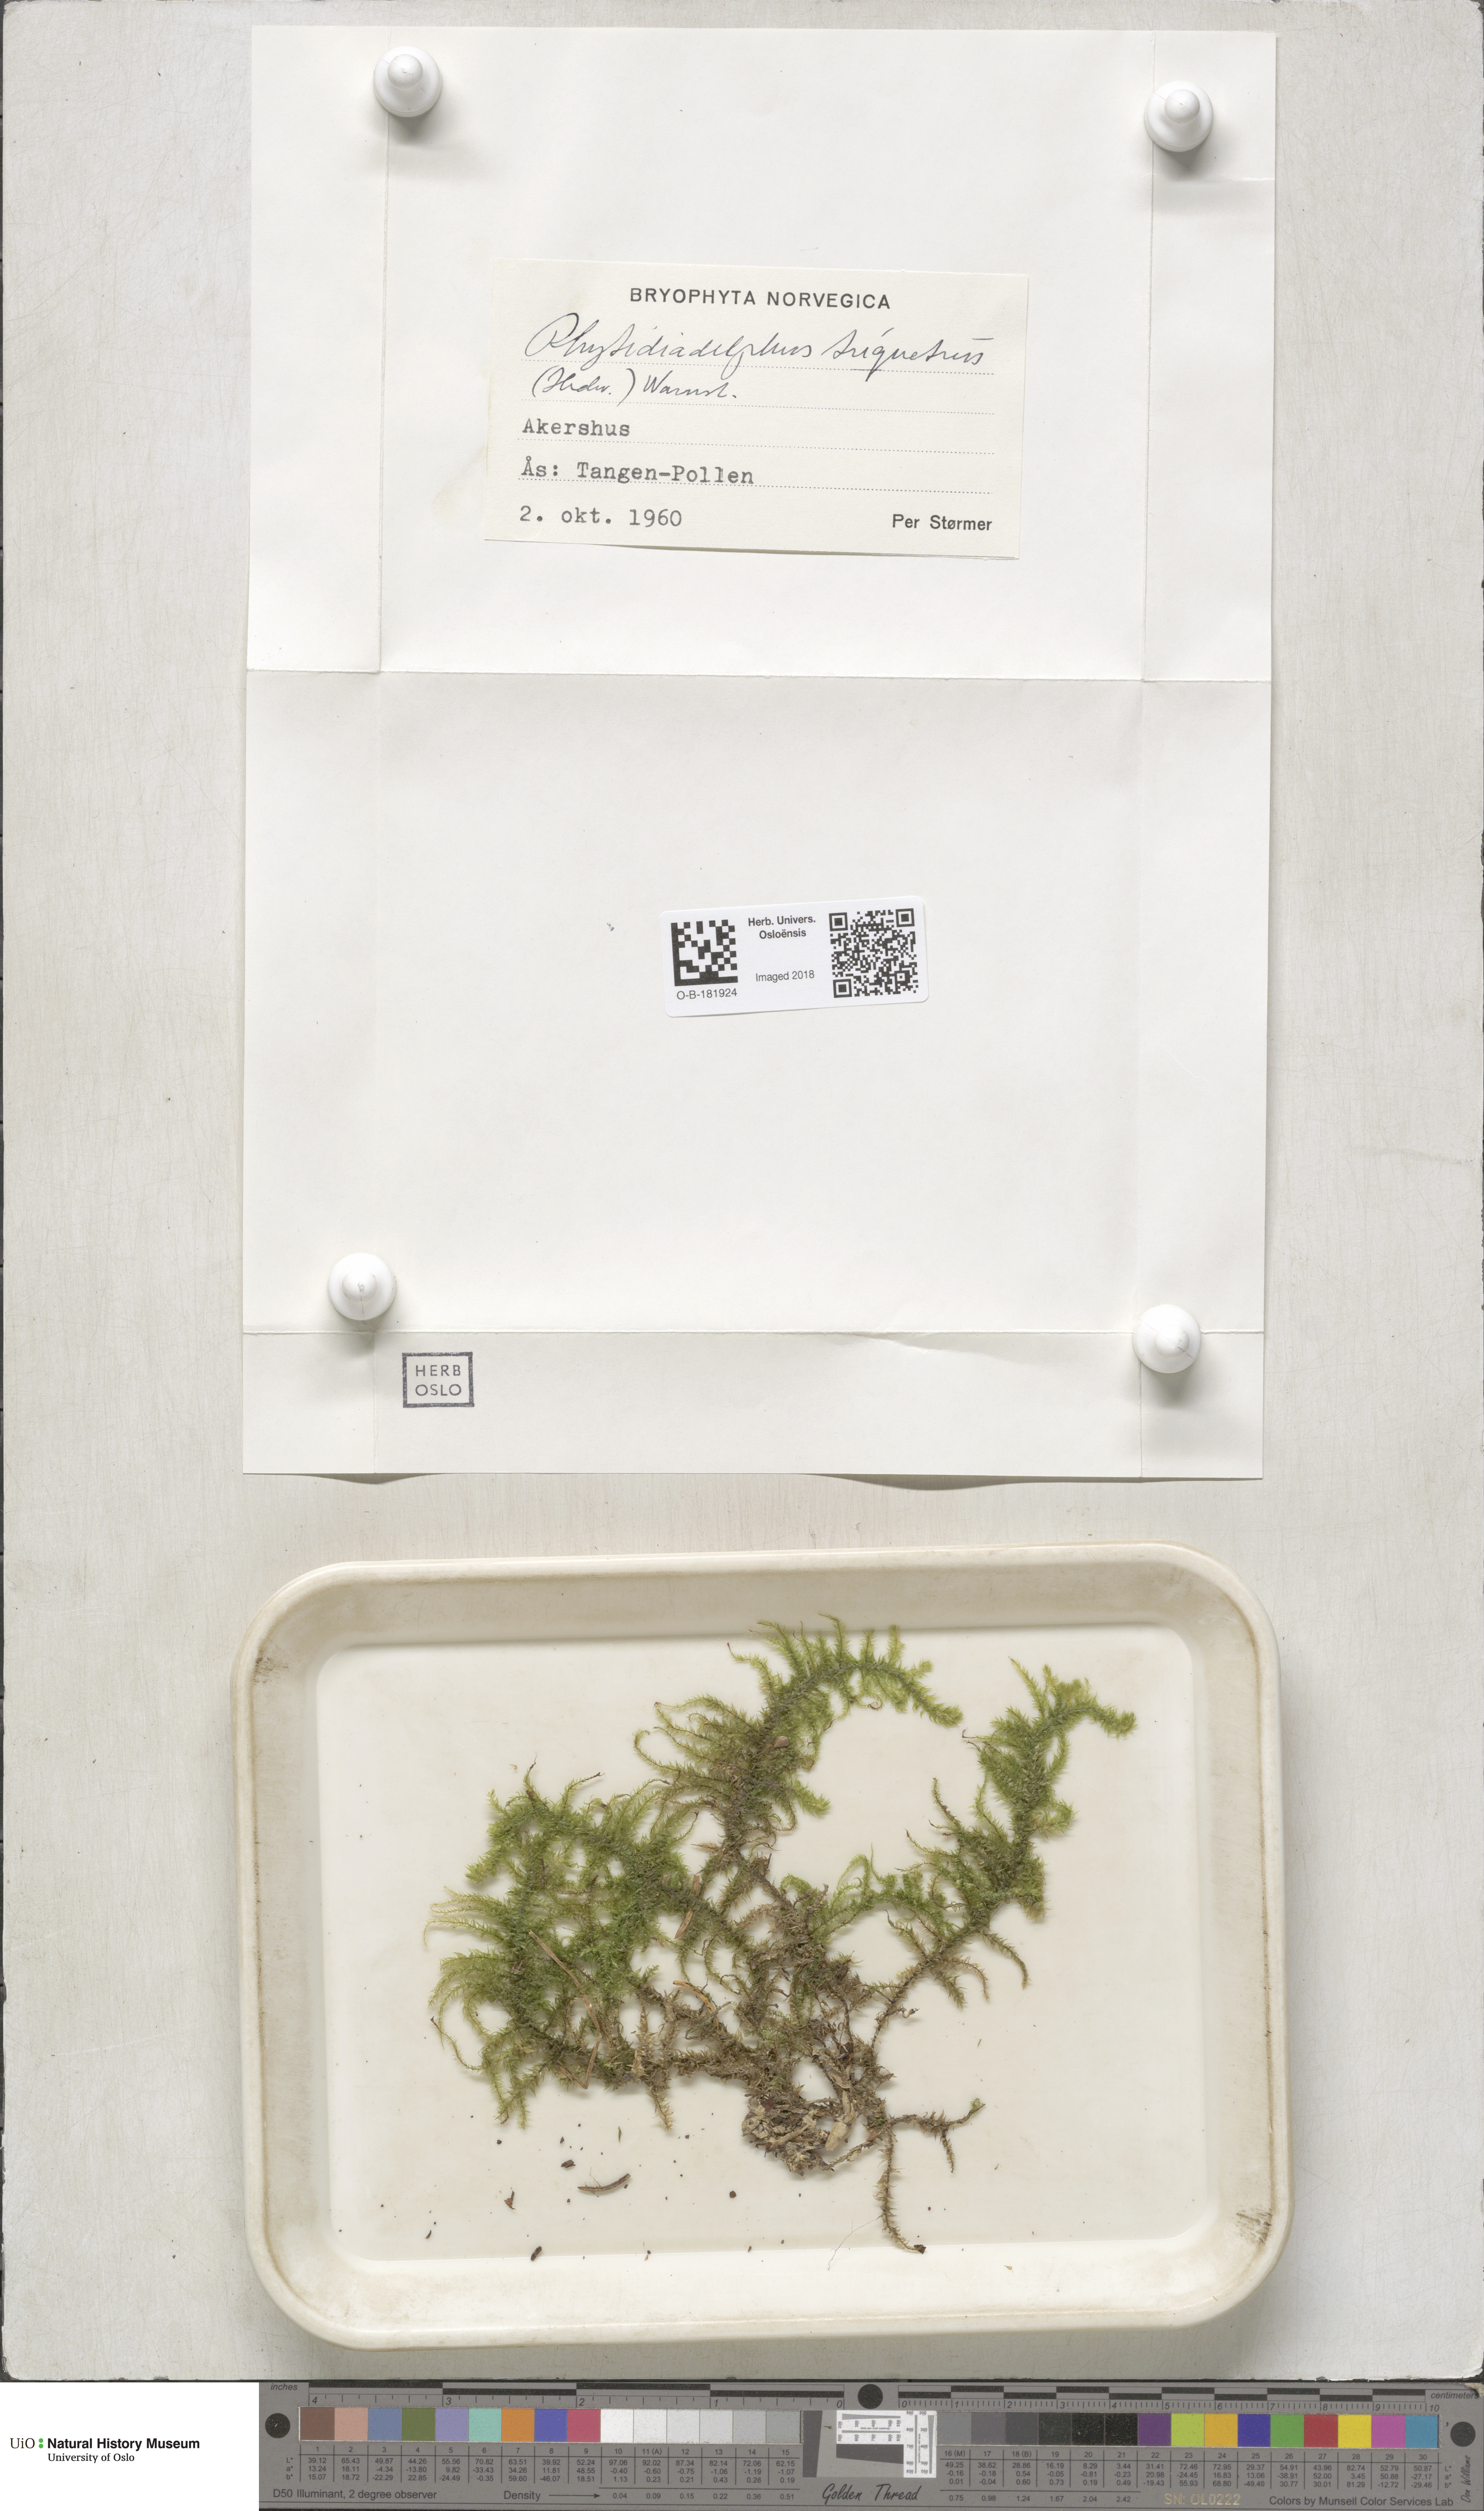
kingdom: Plantae
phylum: Bryophyta
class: Bryopsida
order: Hypnales
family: Hylocomiaceae
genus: Hylocomiadelphus
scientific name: Hylocomiadelphus triquetrus
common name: Rough goose neck moss
